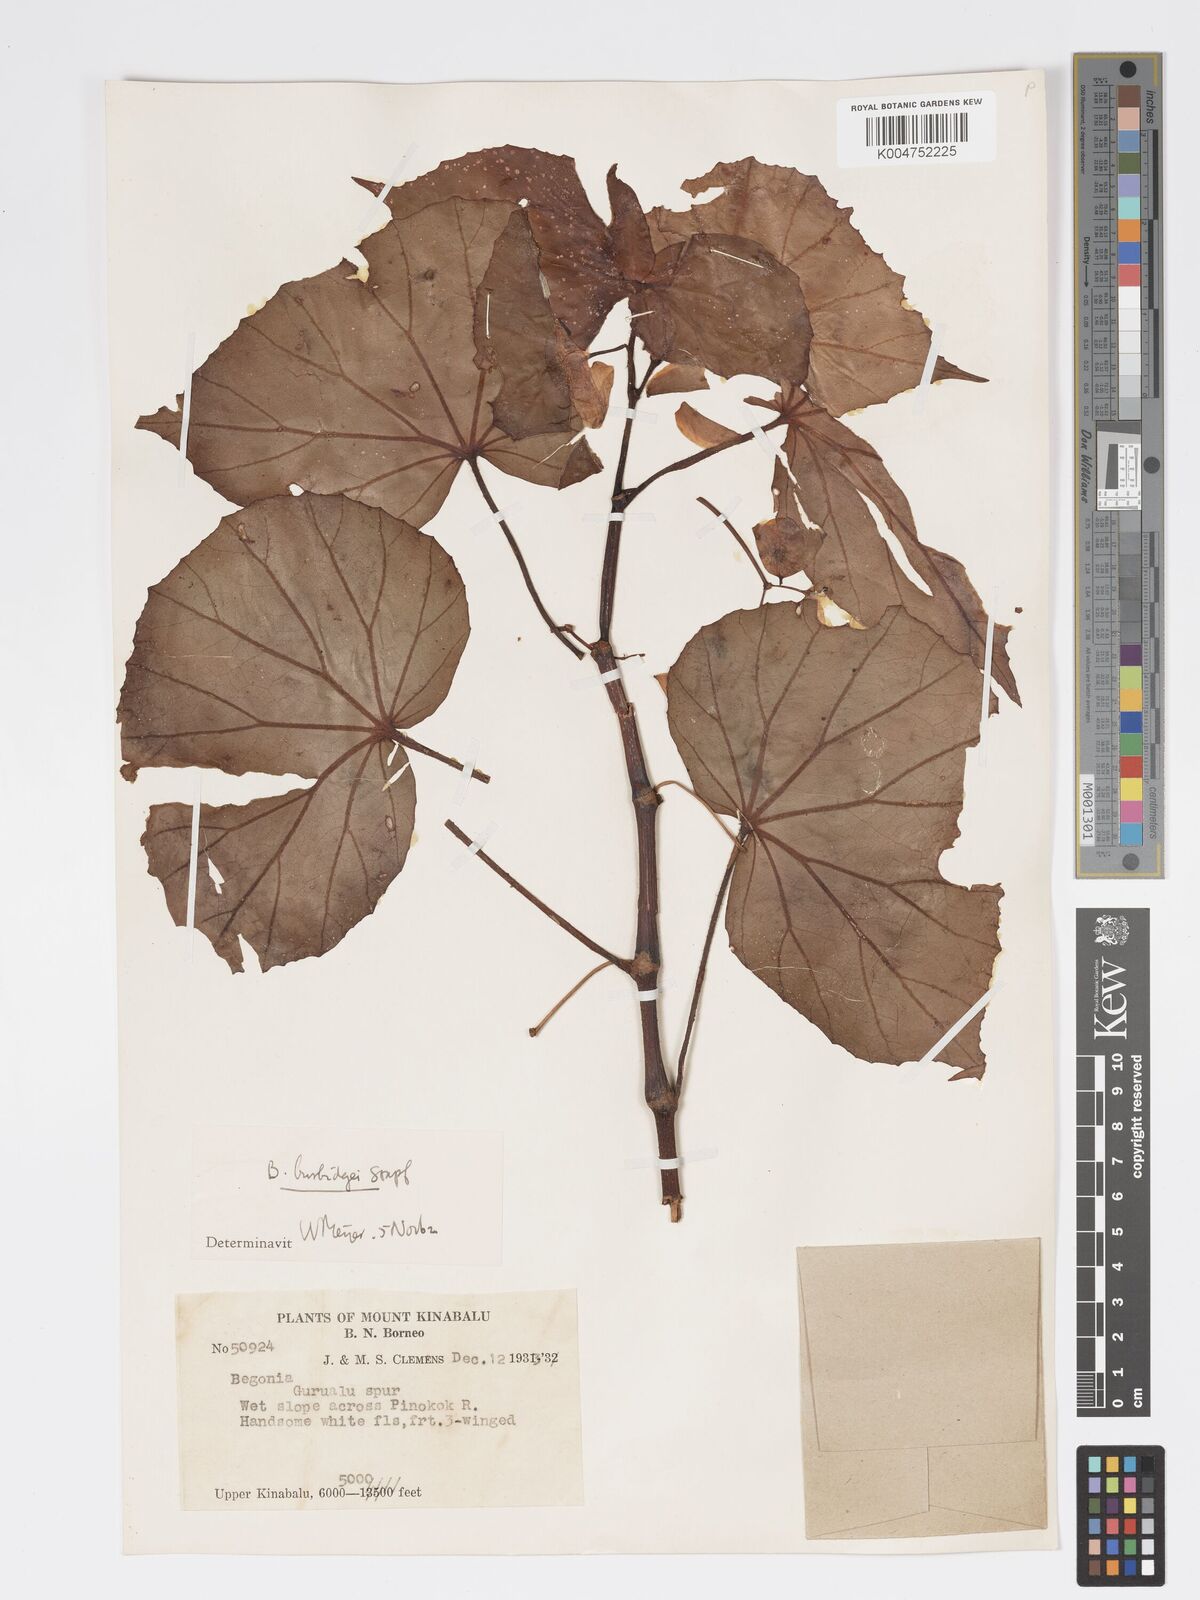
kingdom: Plantae
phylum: Tracheophyta
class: Magnoliopsida
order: Cucurbitales
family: Begoniaceae
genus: Begonia
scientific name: Begonia burbidgei
